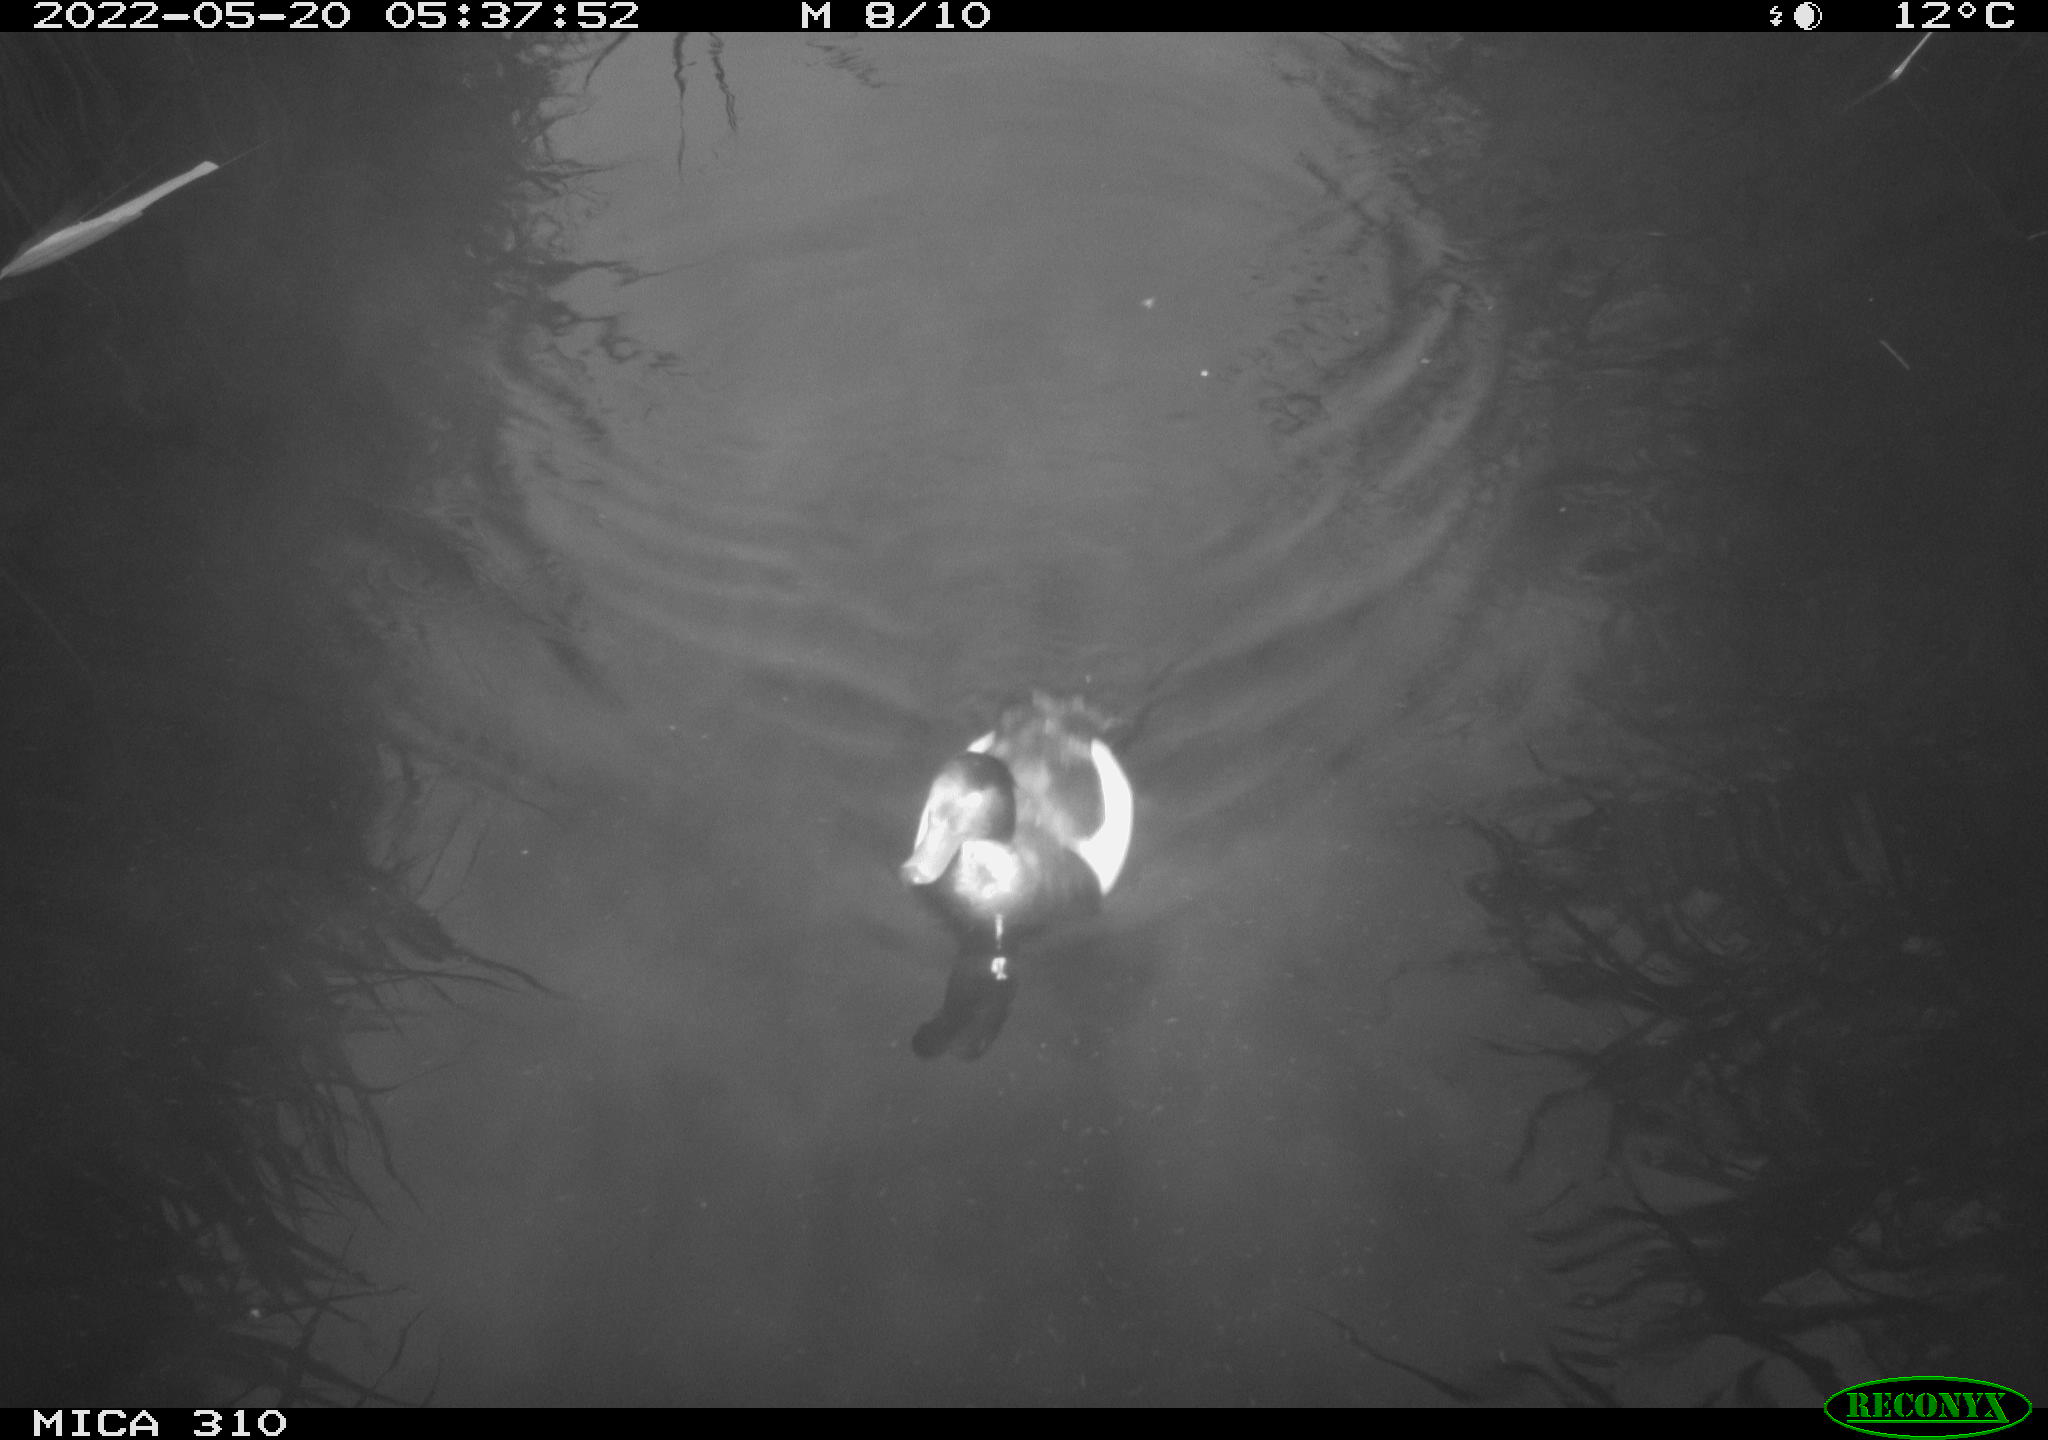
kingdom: Animalia
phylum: Chordata
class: Aves
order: Anseriformes
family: Anatidae
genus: Anas
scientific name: Anas platyrhynchos
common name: Mallard
